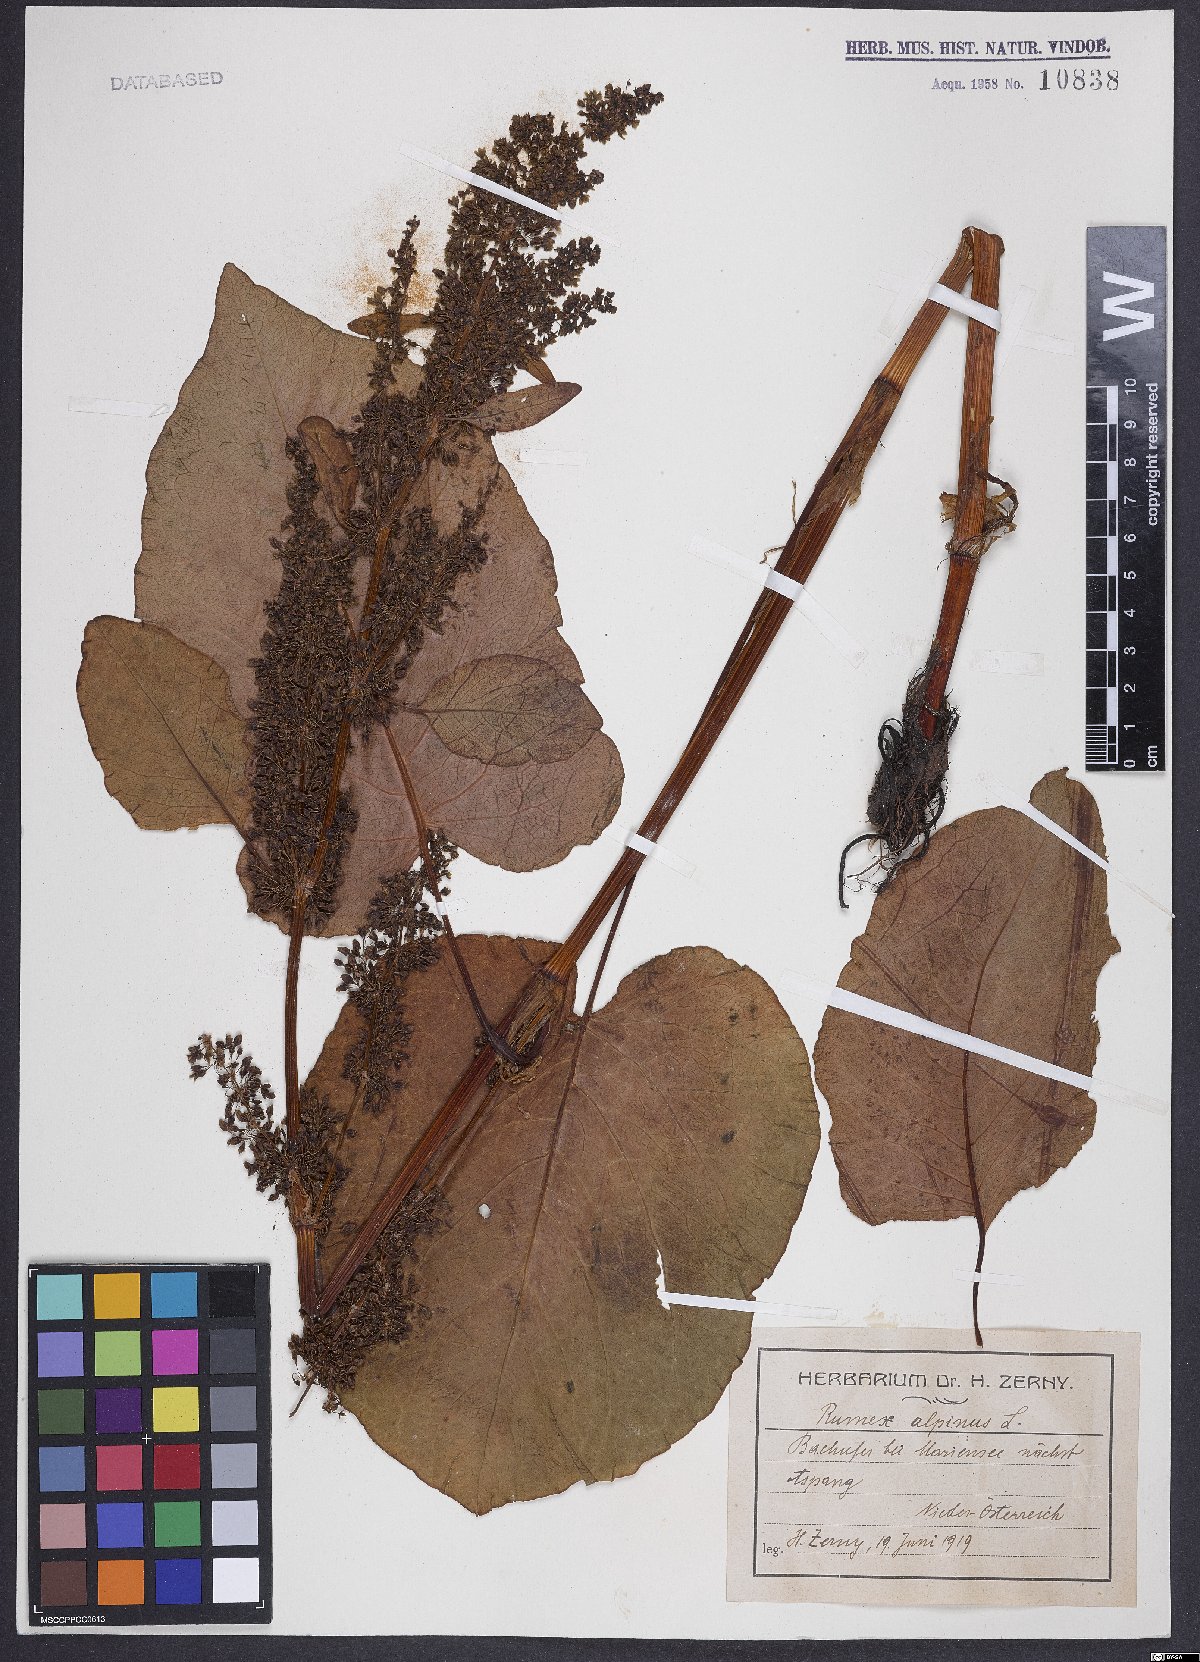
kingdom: Plantae
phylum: Tracheophyta
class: Magnoliopsida
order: Caryophyllales
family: Polygonaceae
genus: Rumex
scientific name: Rumex alpinus
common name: Alpine dock
